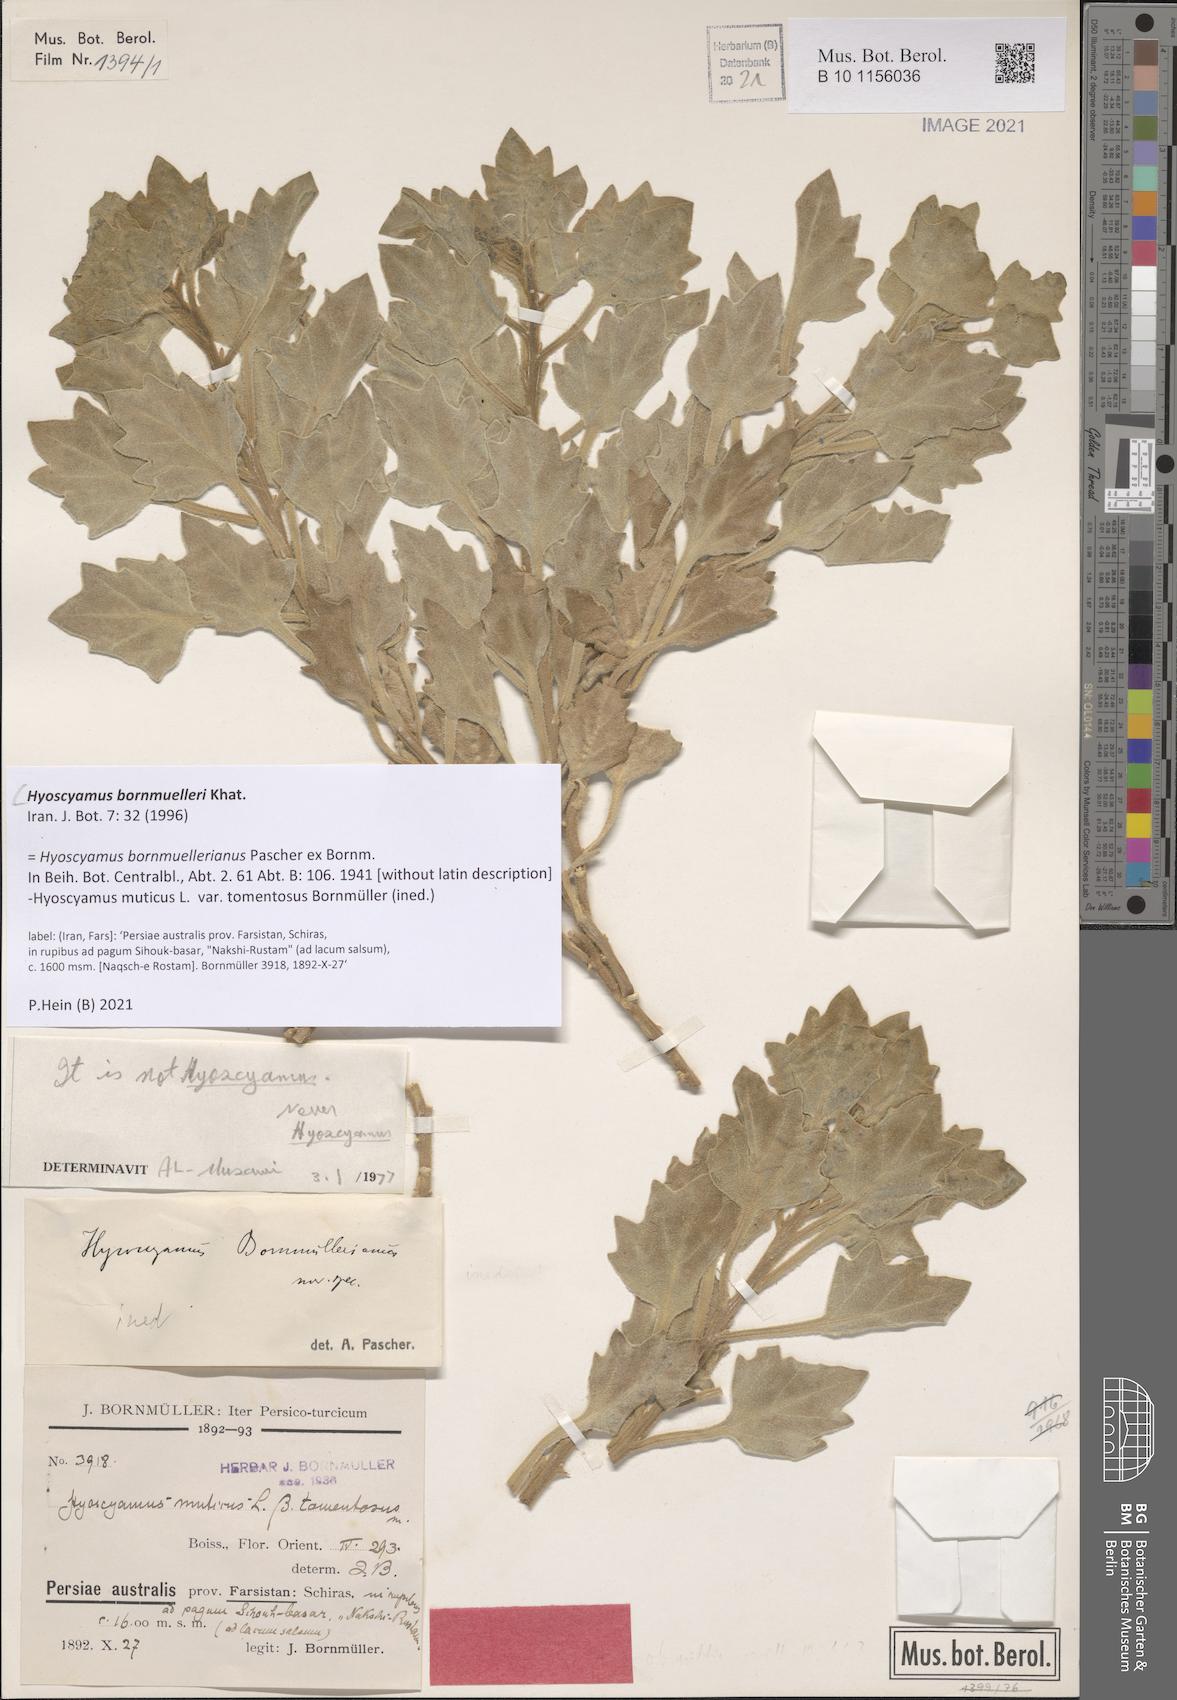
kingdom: Plantae
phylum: Tracheophyta
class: Magnoliopsida
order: Solanales
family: Solanaceae
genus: Hyoscyamus
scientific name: Hyoscyamus bornmuelleri
